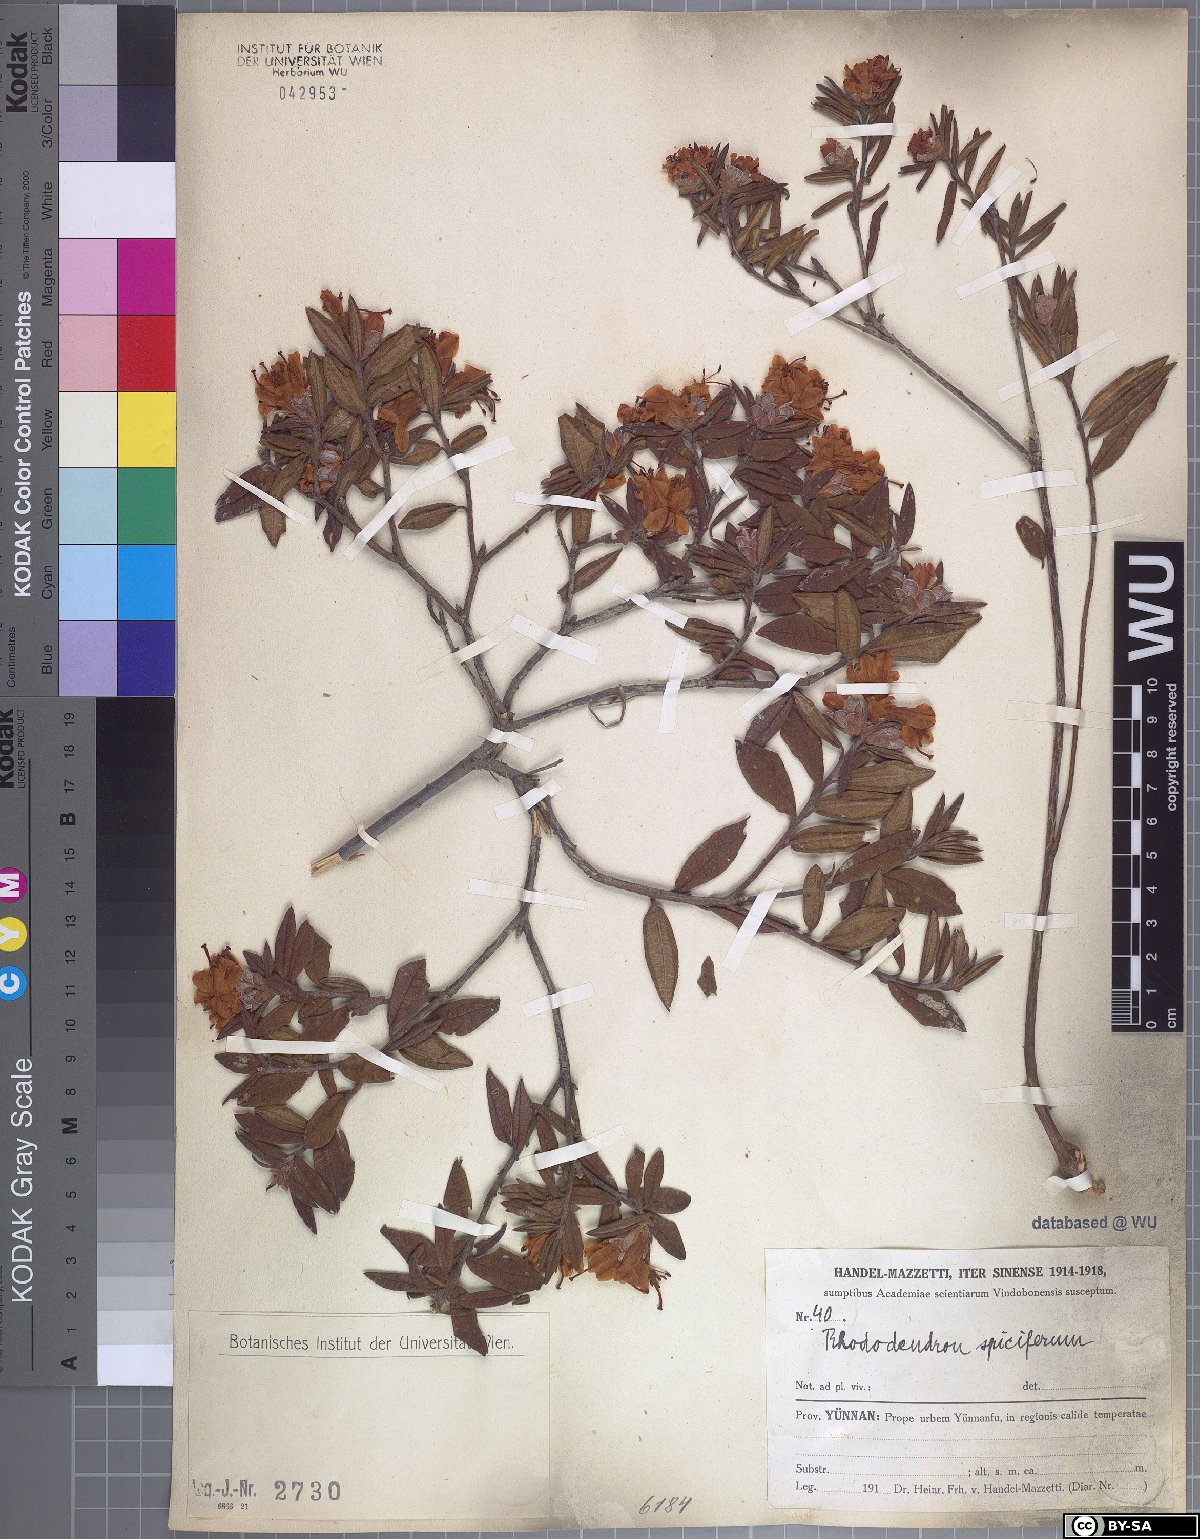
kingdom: Plantae
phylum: Tracheophyta
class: Magnoliopsida
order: Ericales
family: Ericaceae
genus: Rhododendron
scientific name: Rhododendron spiciferum
